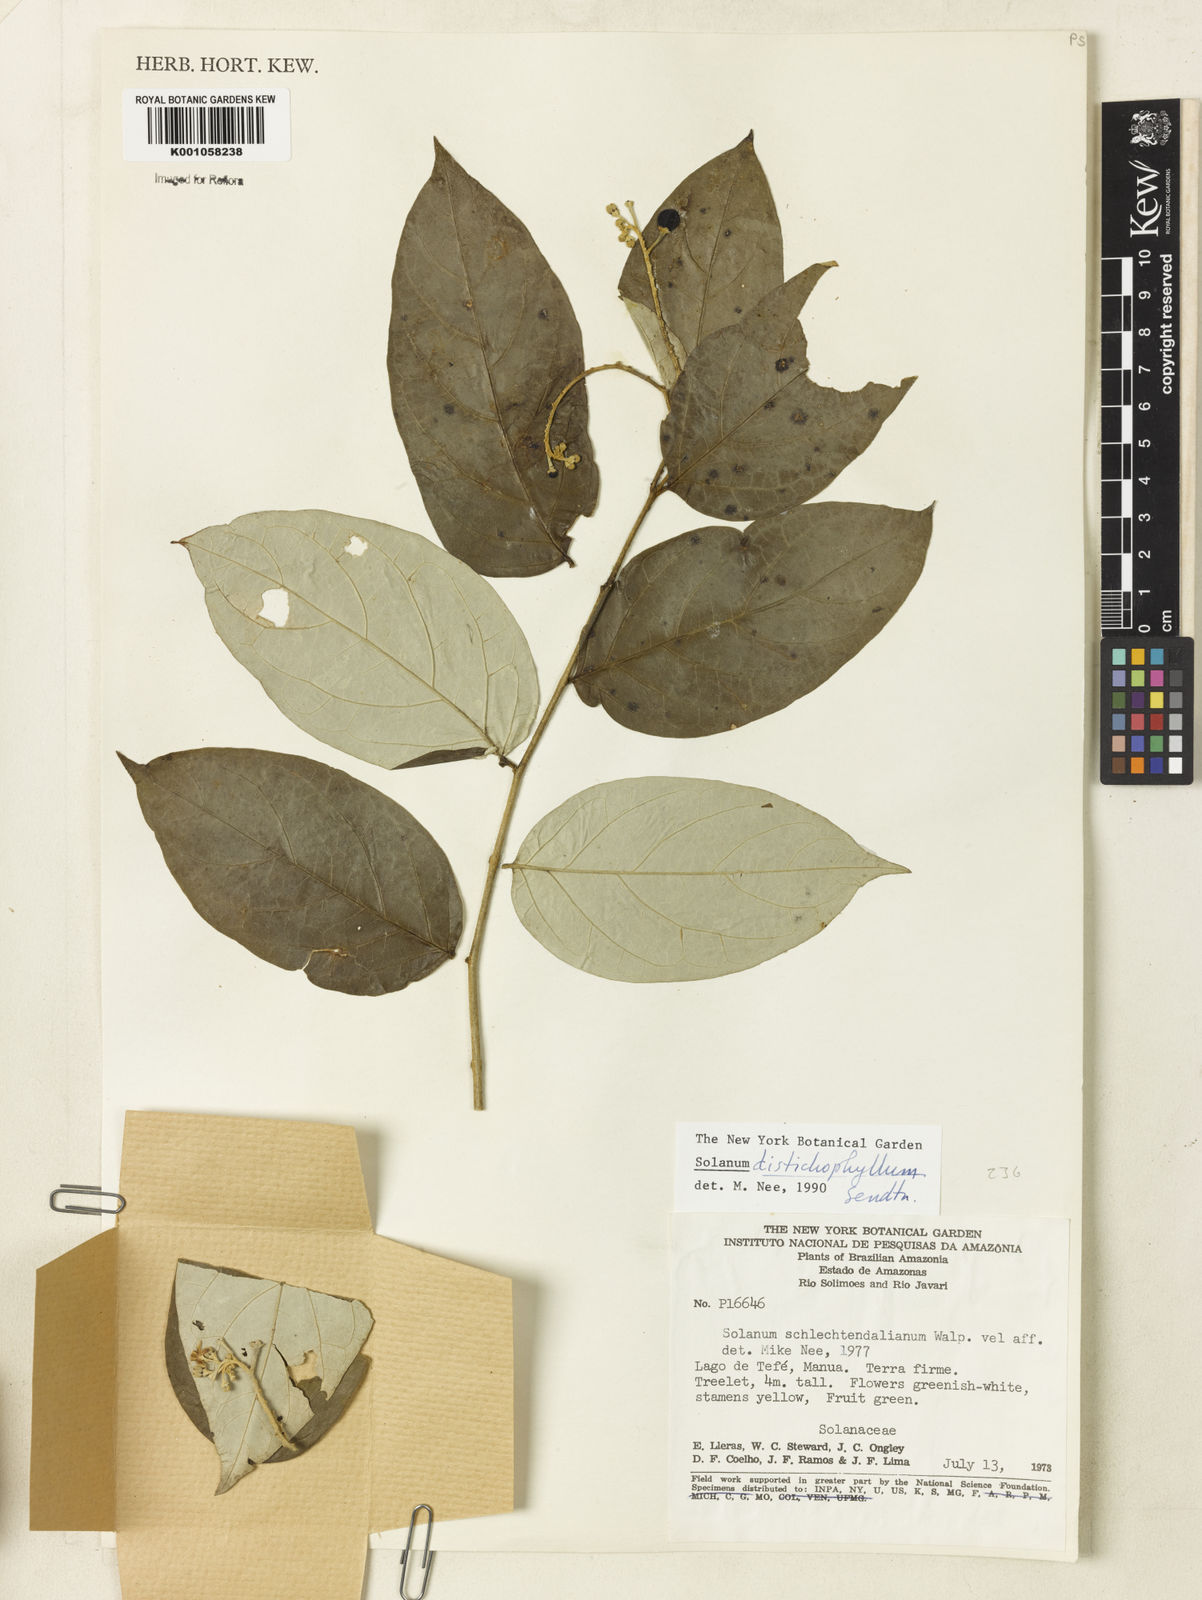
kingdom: Plantae
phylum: Tracheophyta
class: Magnoliopsida
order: Solanales
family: Solanaceae
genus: Solanum
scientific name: Solanum distichophyllum
